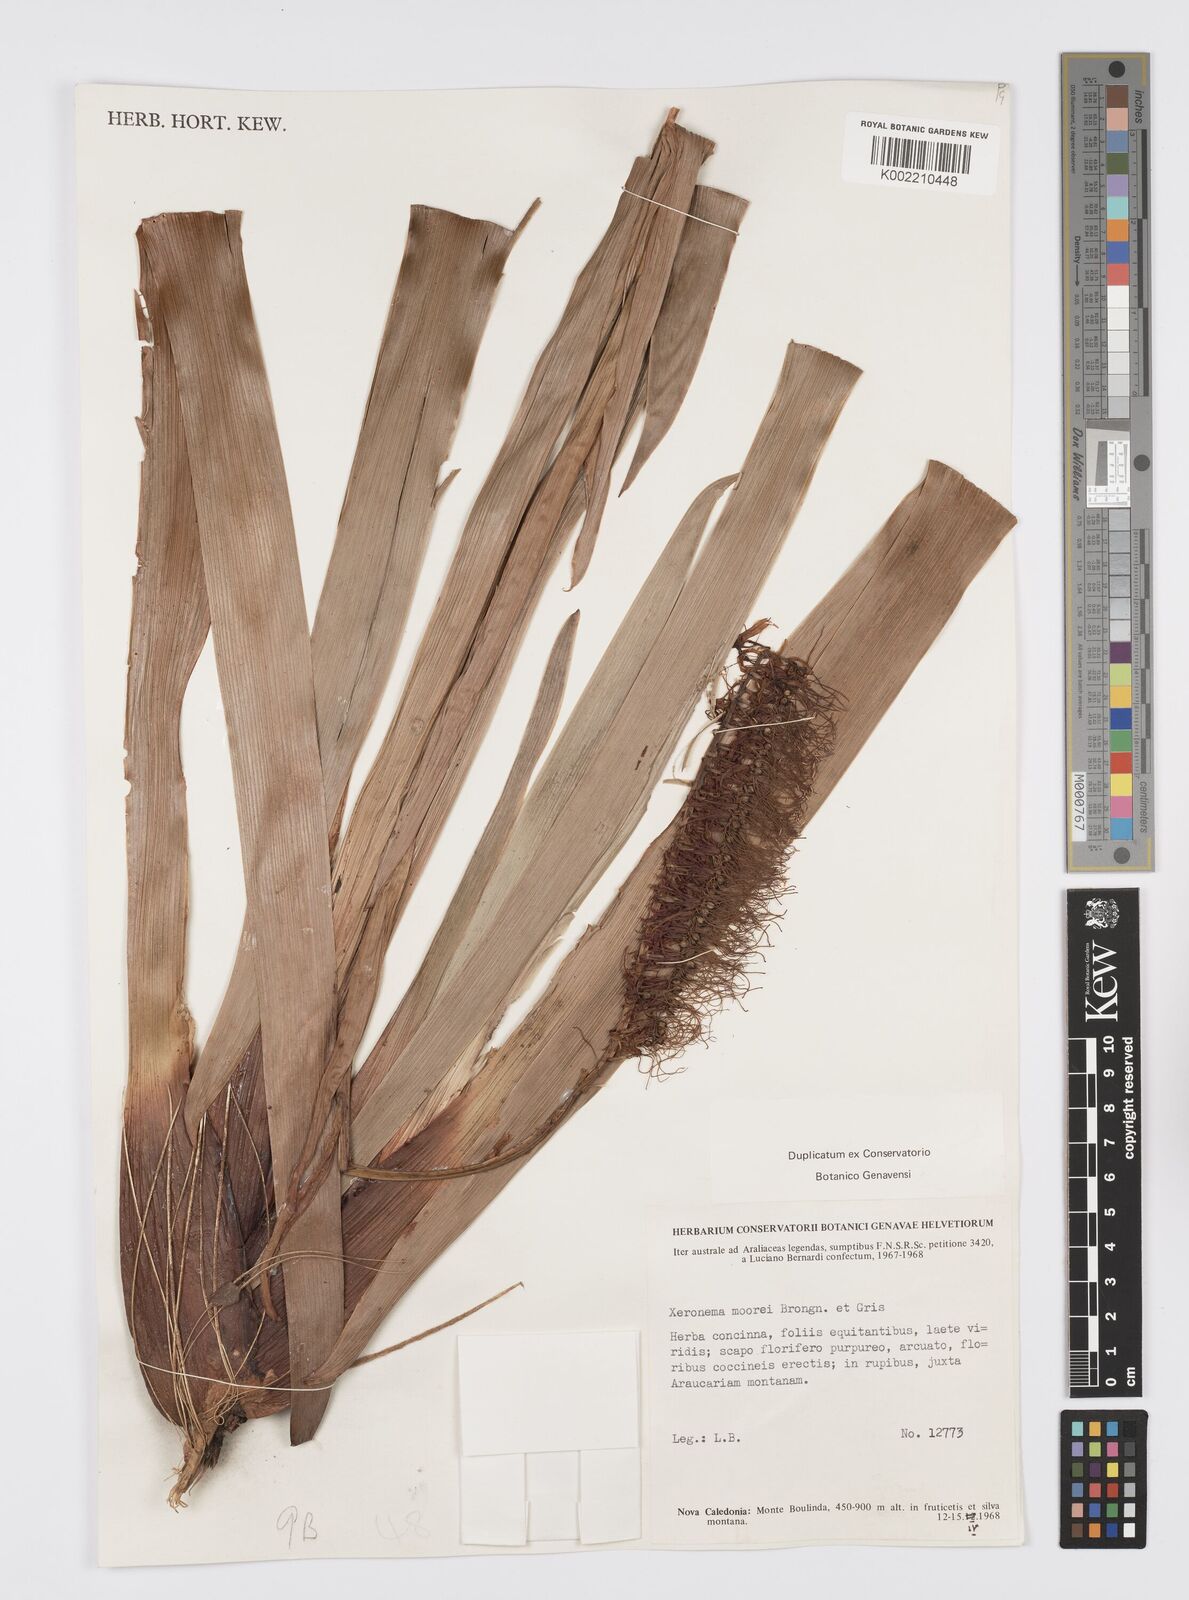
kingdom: Plantae
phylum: Tracheophyta
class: Liliopsida
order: Asparagales
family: Xeronemataceae
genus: Xeronema
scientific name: Xeronema moorei
